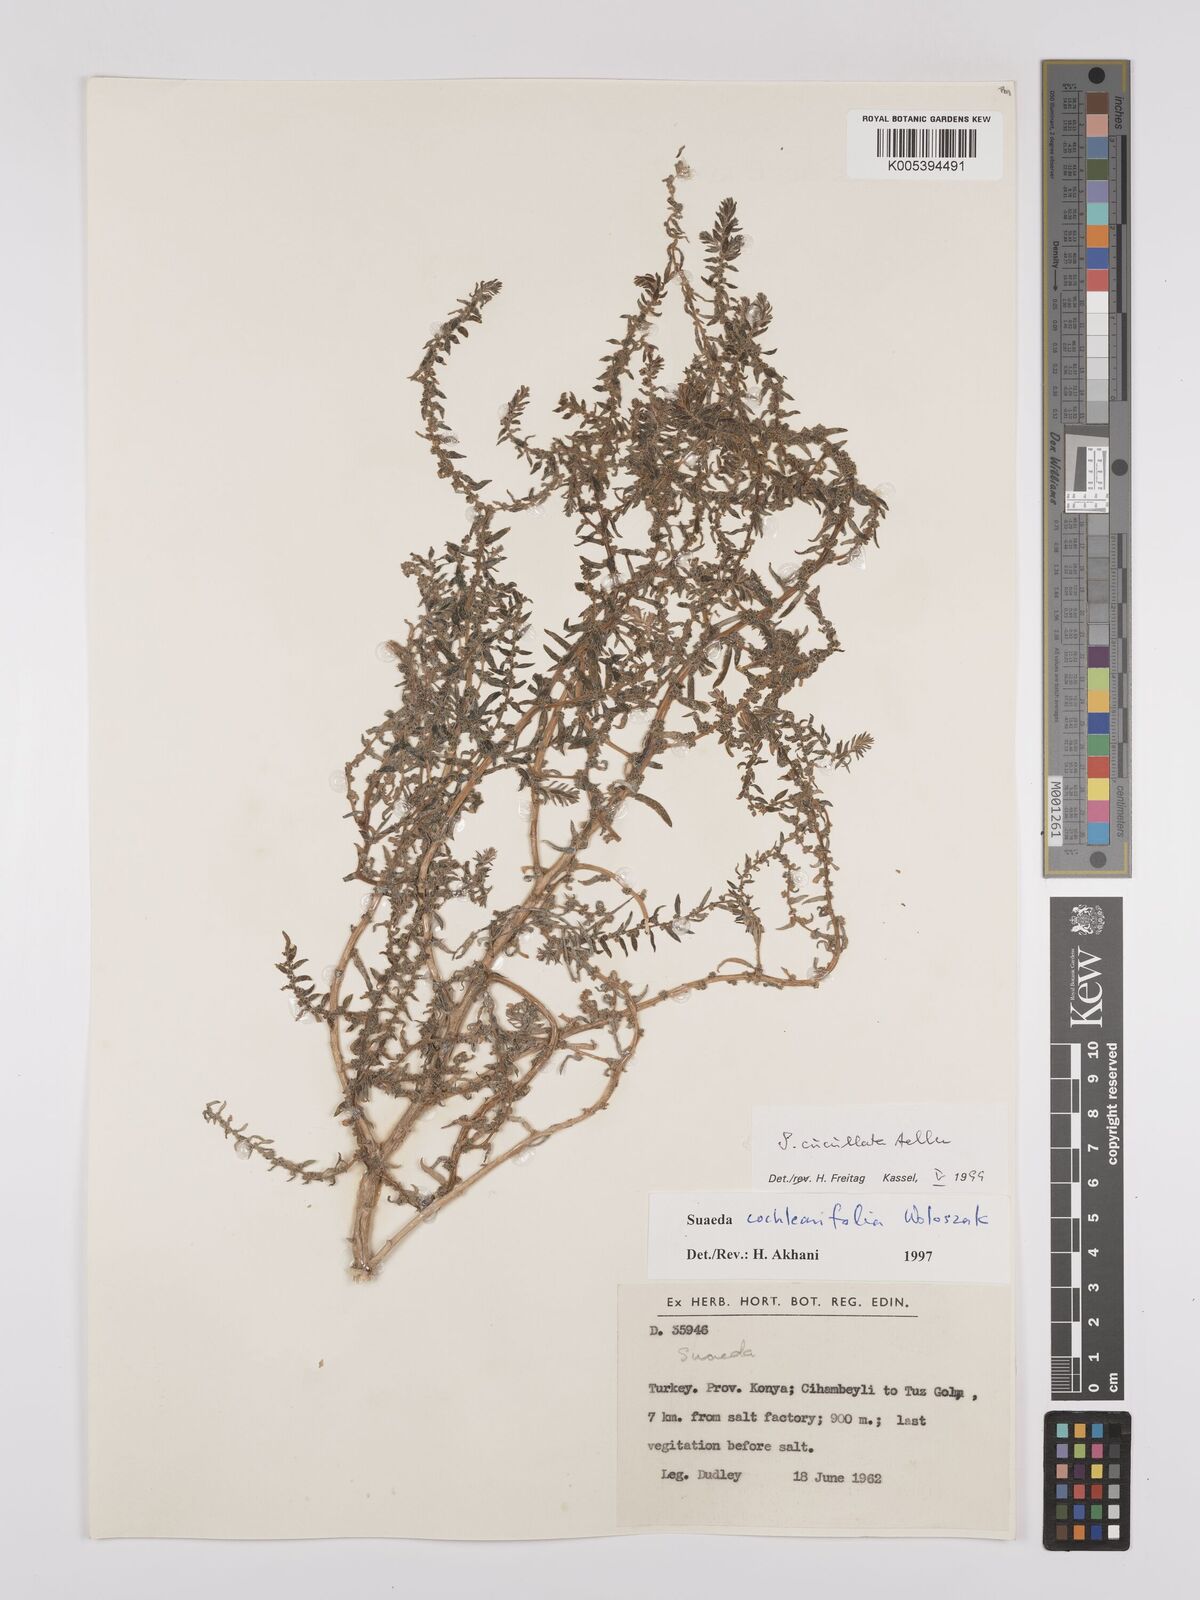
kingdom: Plantae
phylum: Tracheophyta
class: Magnoliopsida
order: Caryophyllales
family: Amaranthaceae
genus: Suaeda
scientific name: Suaeda cucullata
